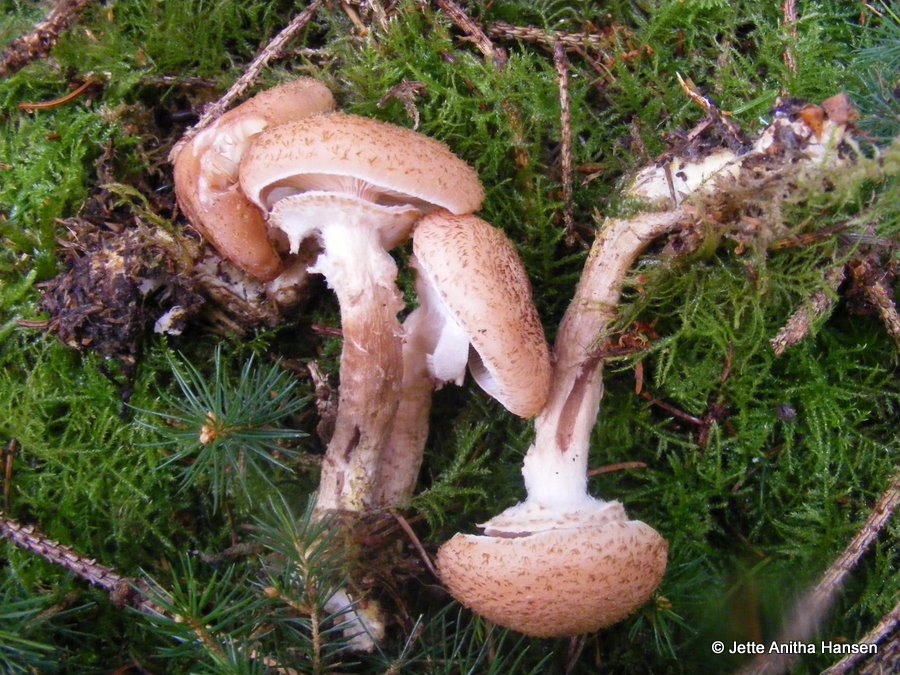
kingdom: Fungi
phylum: Basidiomycota
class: Agaricomycetes
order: Agaricales
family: Physalacriaceae
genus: Armillaria
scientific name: Armillaria ostoyae
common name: mørk honningsvamp
